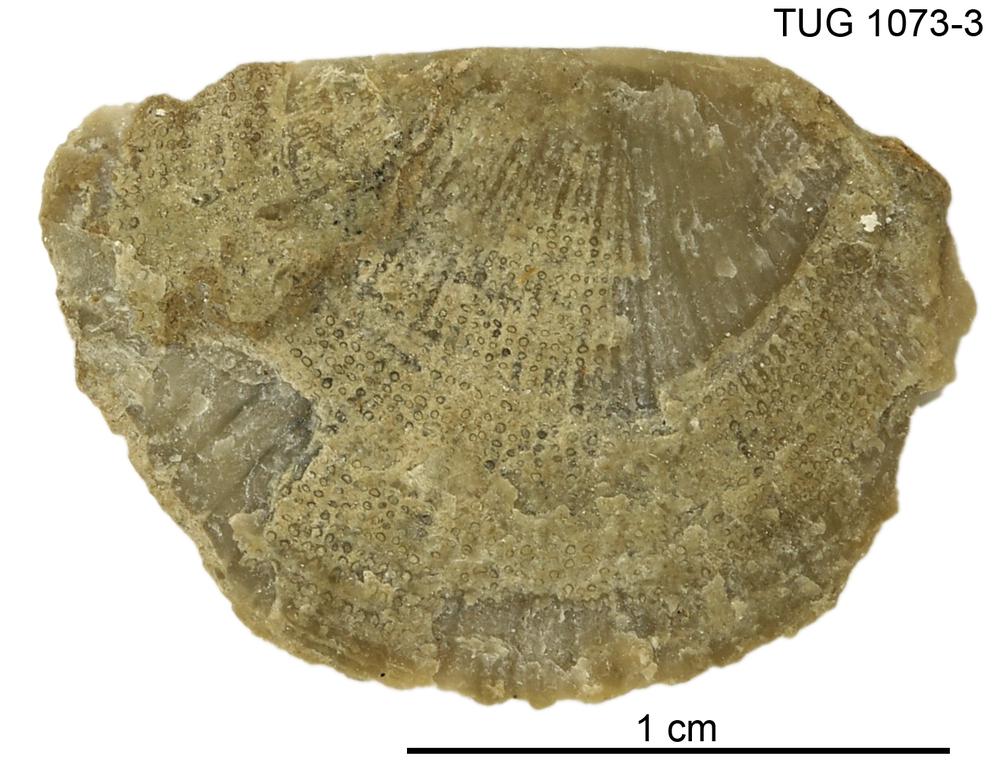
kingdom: Animalia
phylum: Brachiopoda
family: Gonambonitidae
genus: Estlandia
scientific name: Estlandia
